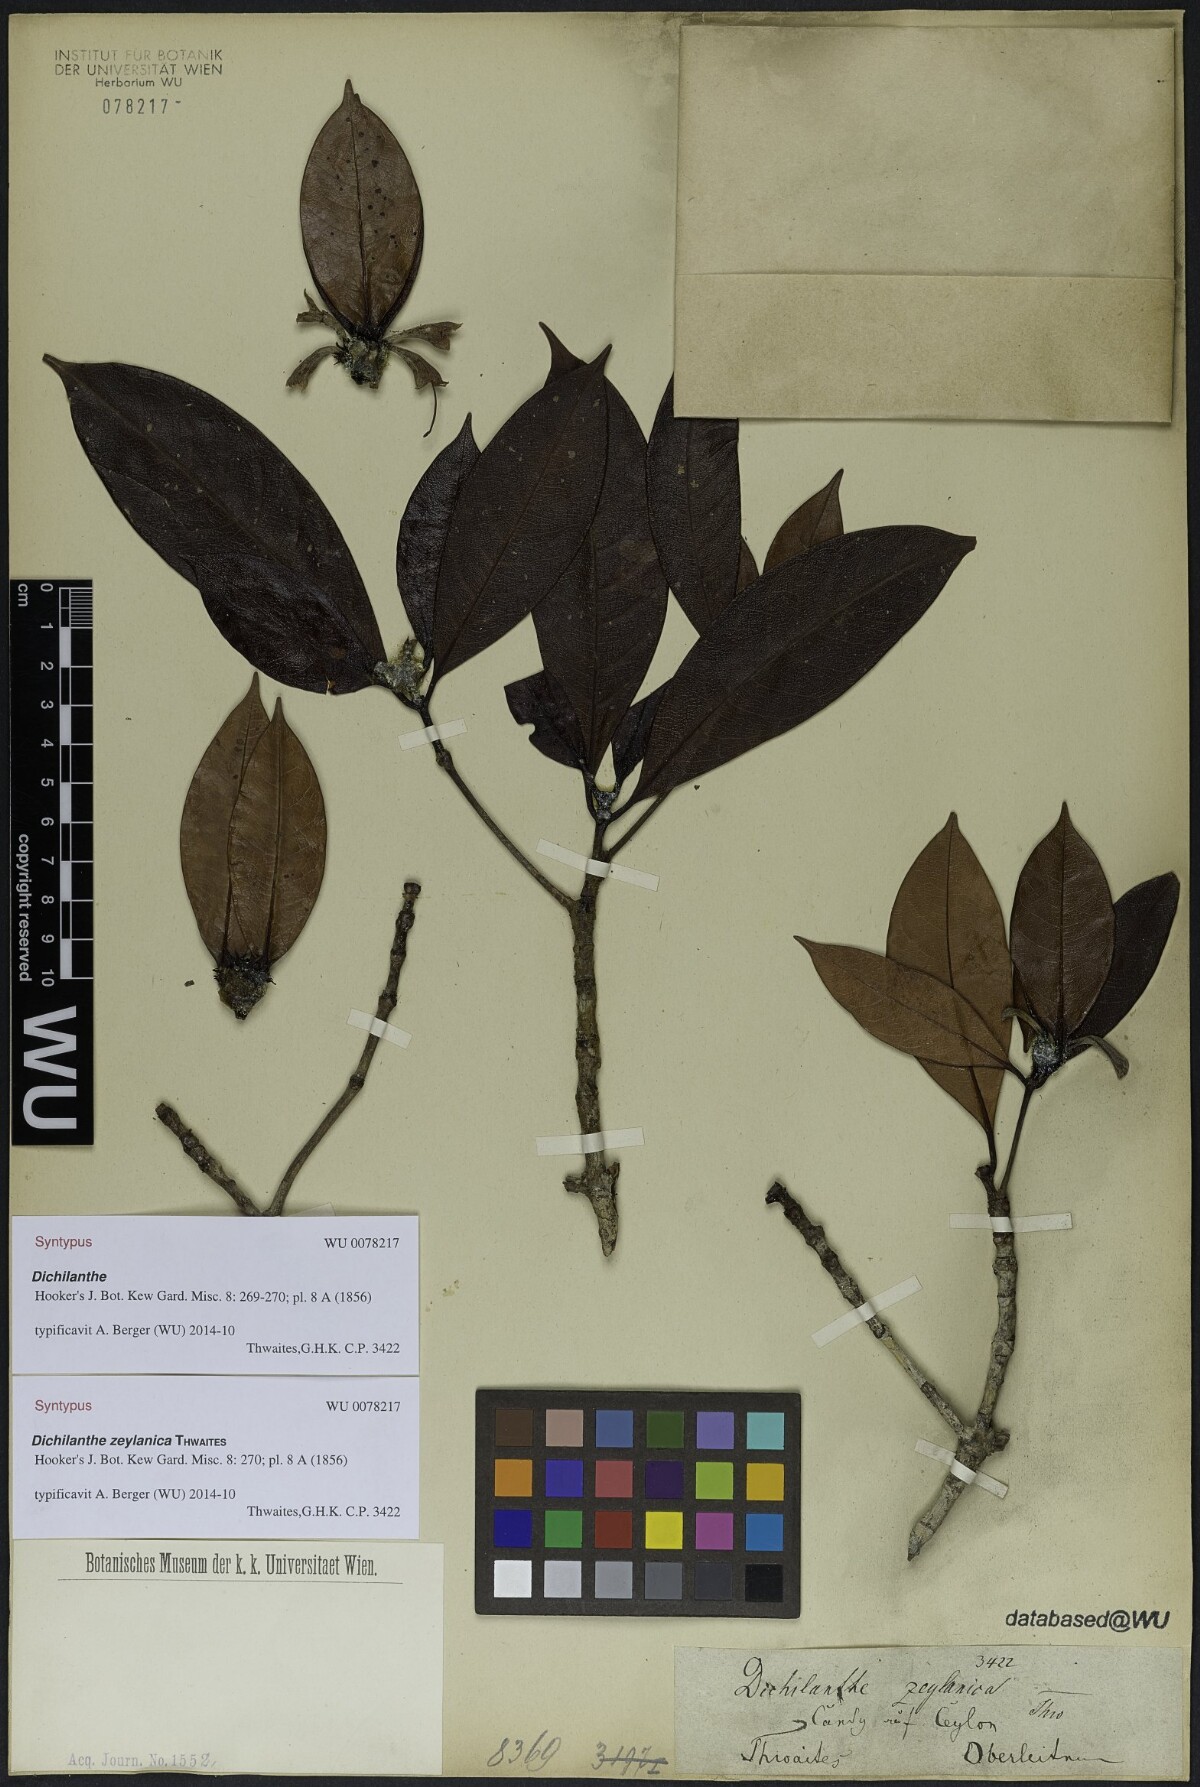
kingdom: Plantae
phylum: Tracheophyta
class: Magnoliopsida
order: Gentianales
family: Rubiaceae
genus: Dichilanthe
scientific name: Dichilanthe zeylanica
